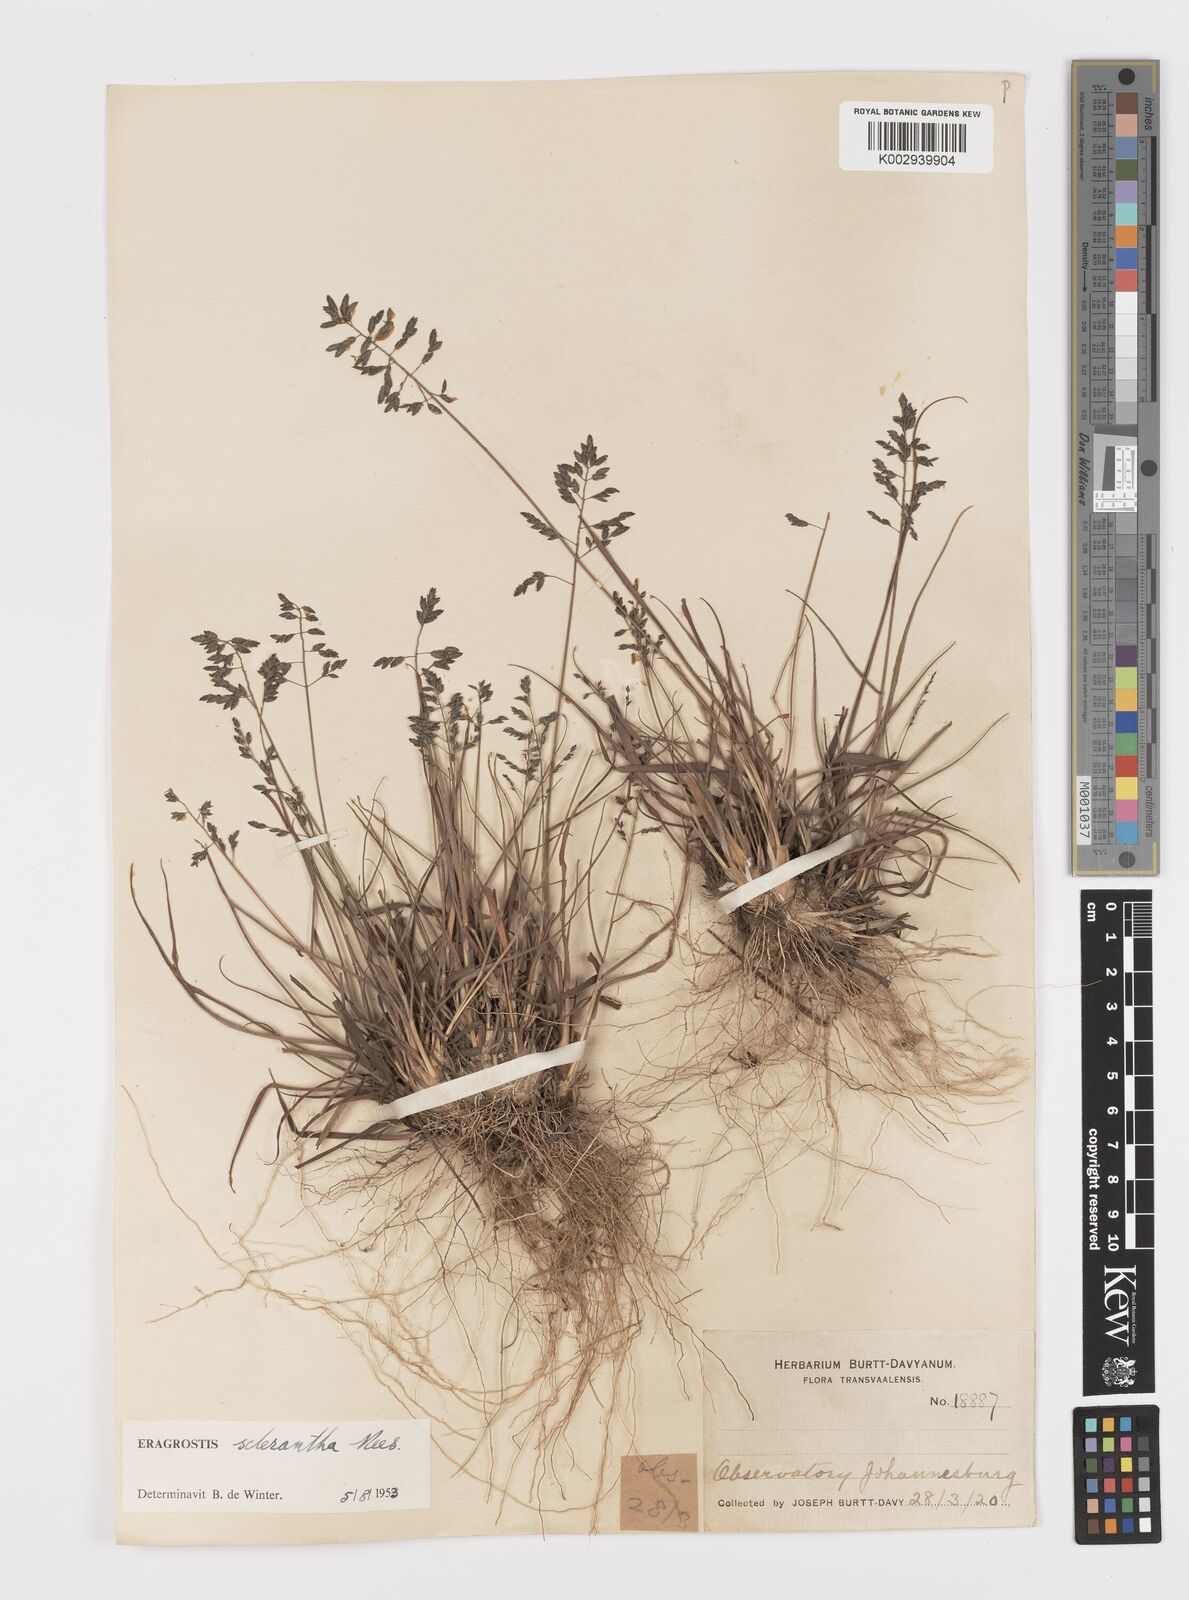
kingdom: Plantae
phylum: Tracheophyta
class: Liliopsida
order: Poales
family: Poaceae
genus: Eragrostis
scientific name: Eragrostis sclerantha
